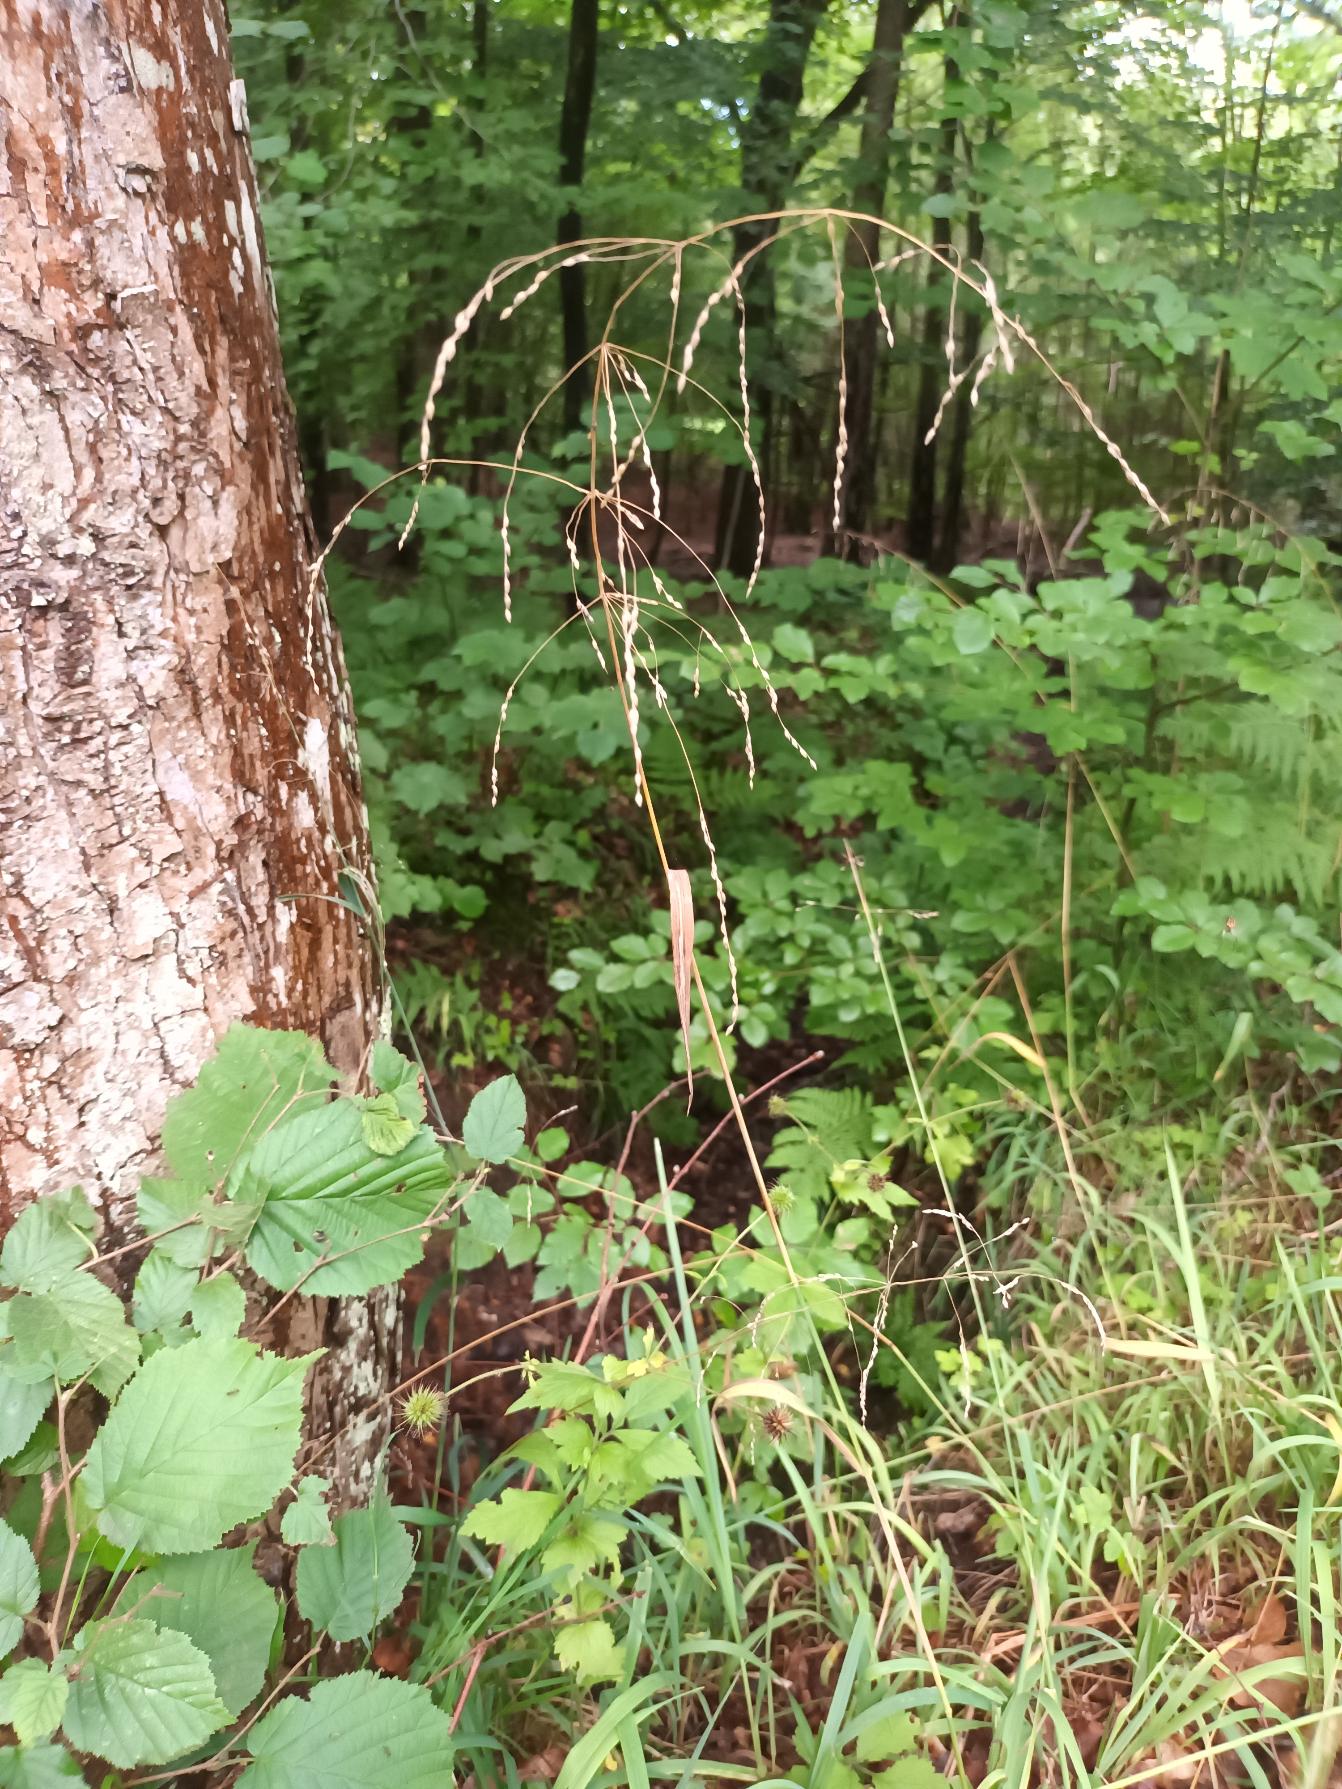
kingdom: Plantae
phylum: Tracheophyta
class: Liliopsida
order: Poales
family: Poaceae
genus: Milium
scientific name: Milium effusum
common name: Miliegræs
